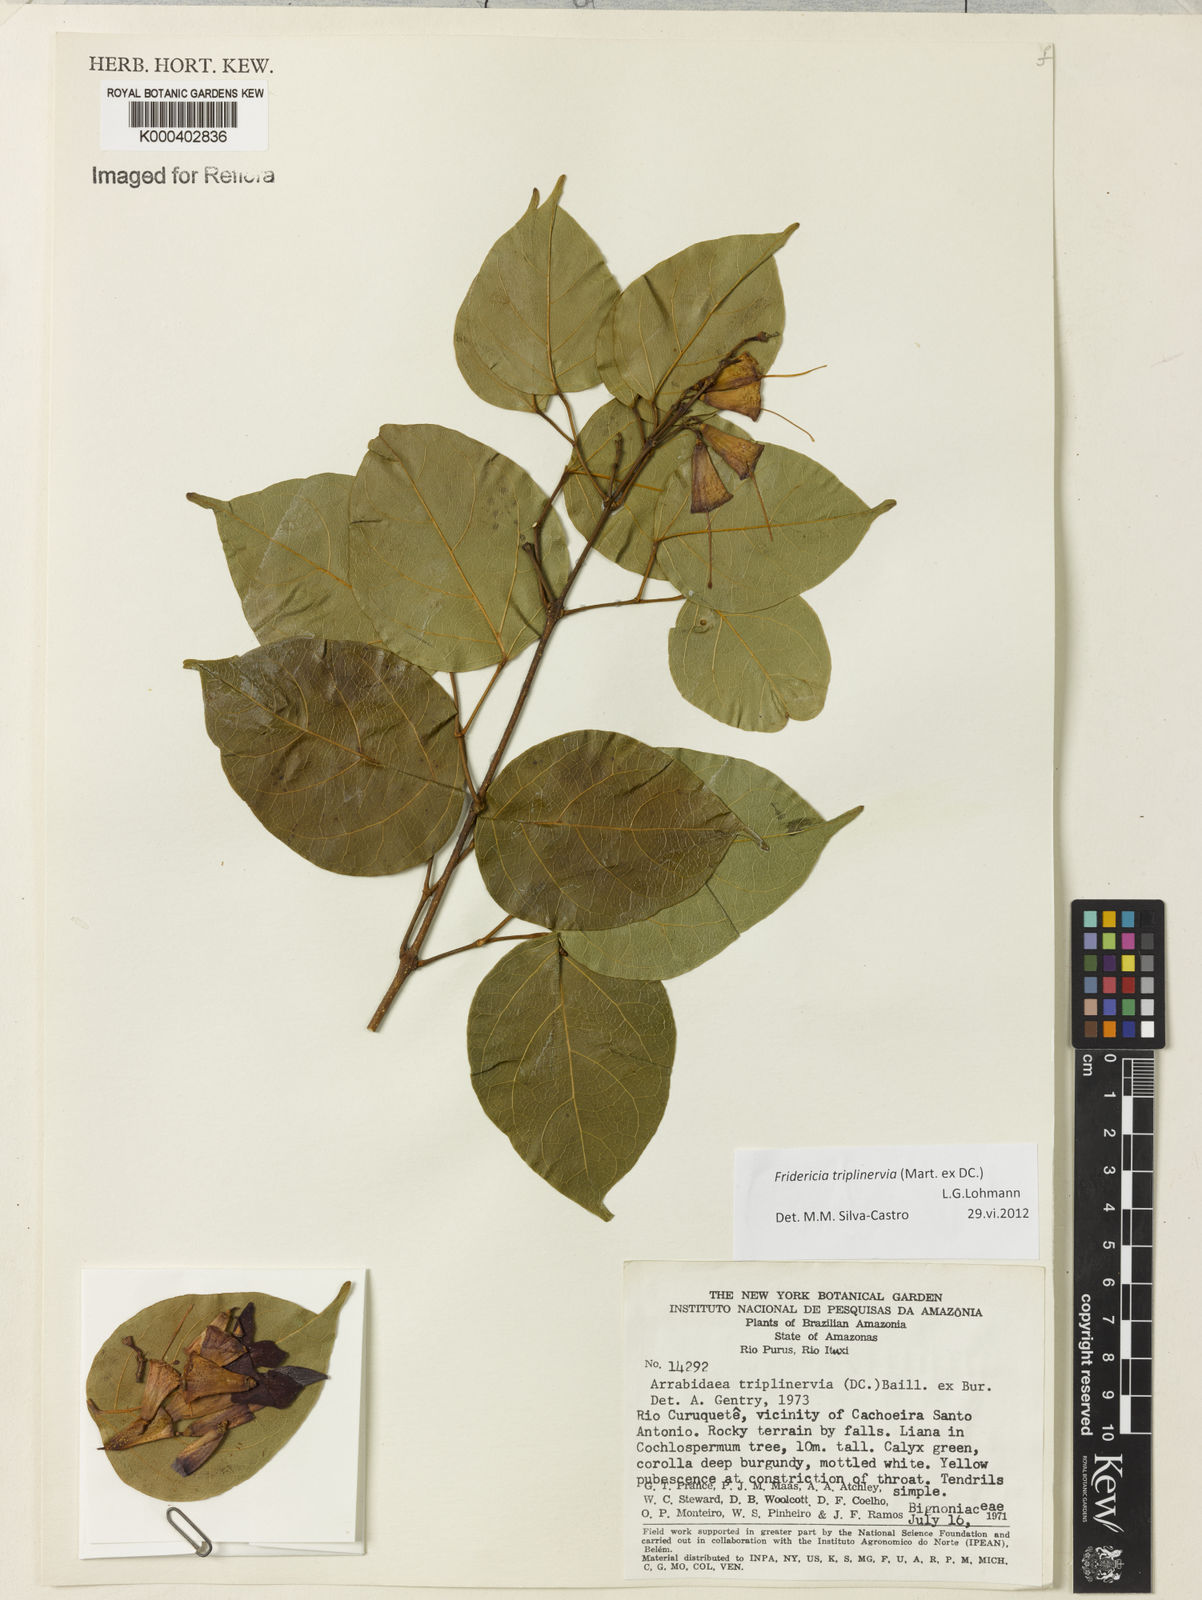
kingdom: Plantae
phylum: Tracheophyta
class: Magnoliopsida
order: Lamiales
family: Bignoniaceae
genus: Fridericia
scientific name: Fridericia triplinervia
